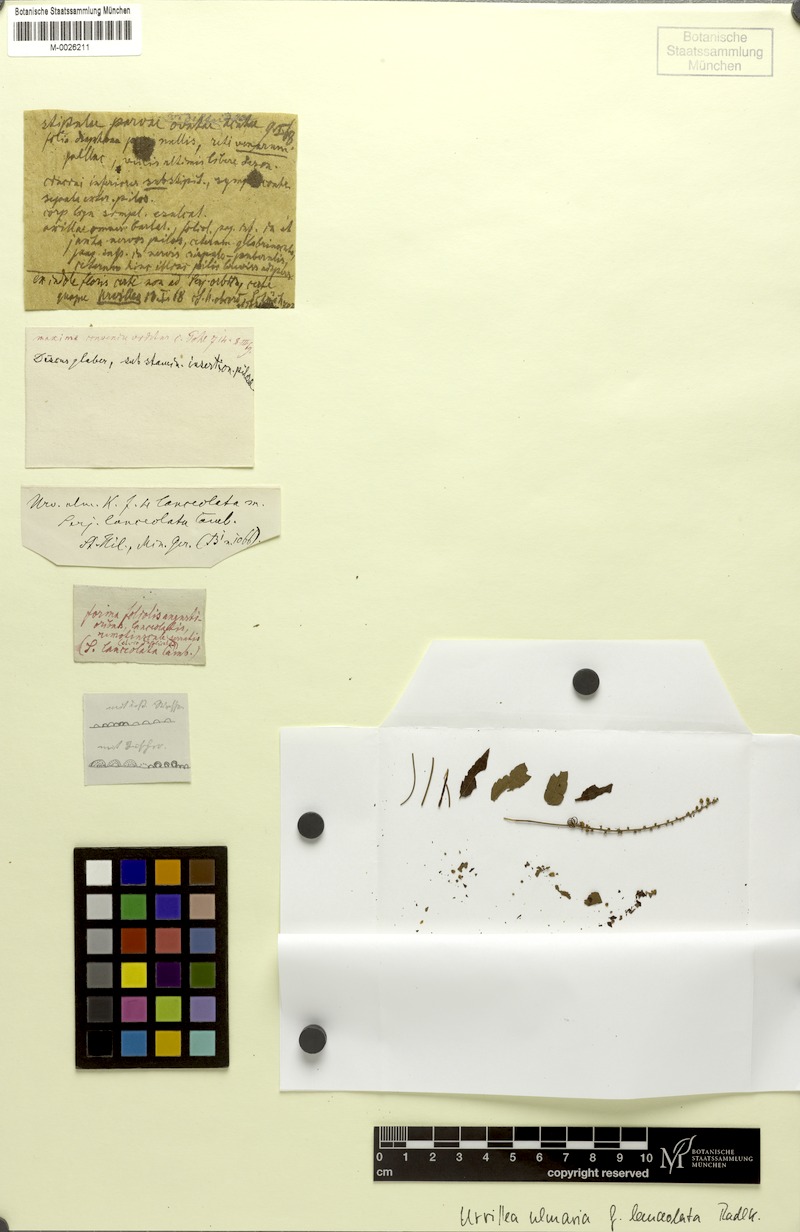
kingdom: Plantae
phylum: Tracheophyta
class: Magnoliopsida
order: Sapindales
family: Sapindaceae
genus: Urvillea
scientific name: Urvillea ulmacea
